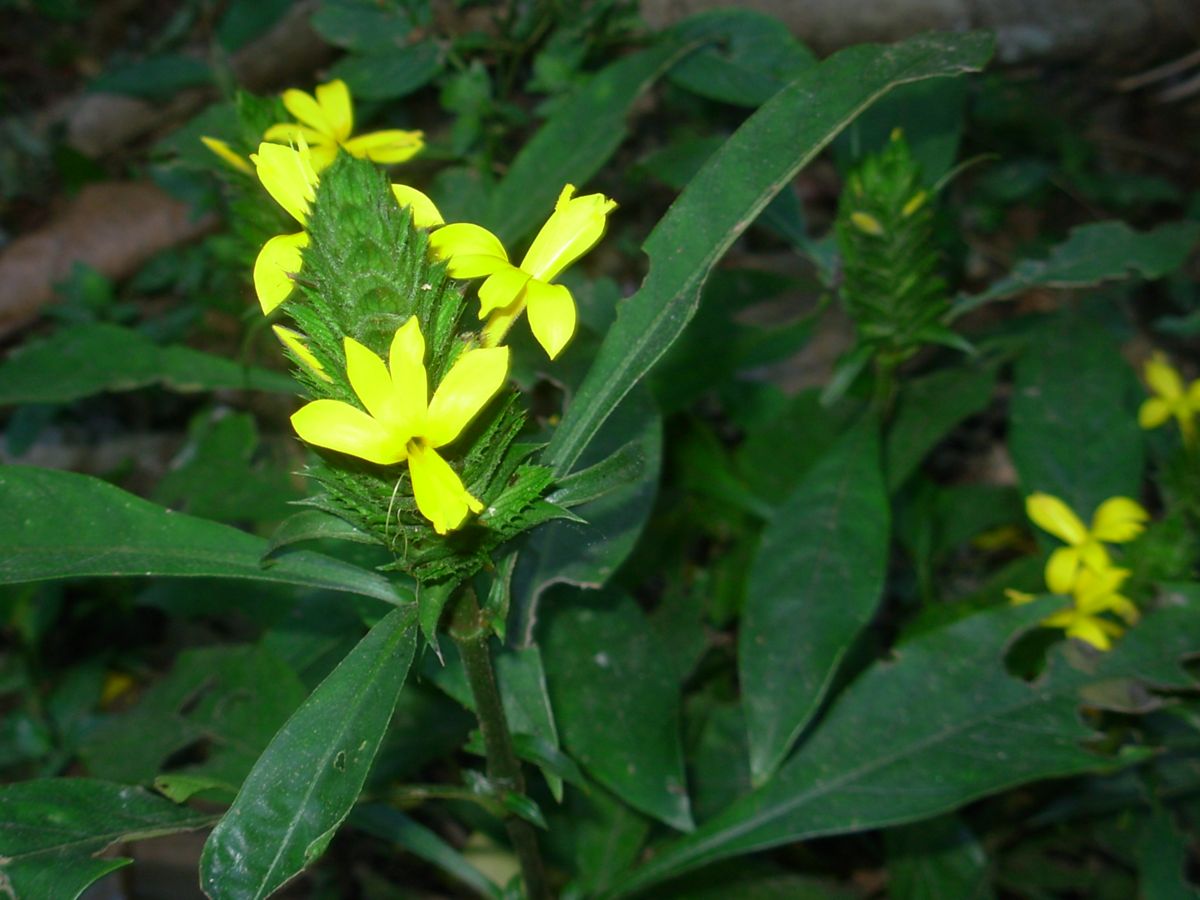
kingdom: Plantae
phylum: Tracheophyta
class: Magnoliopsida
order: Lamiales
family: Acanthaceae
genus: Barleria
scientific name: Barleria oenotheroides
